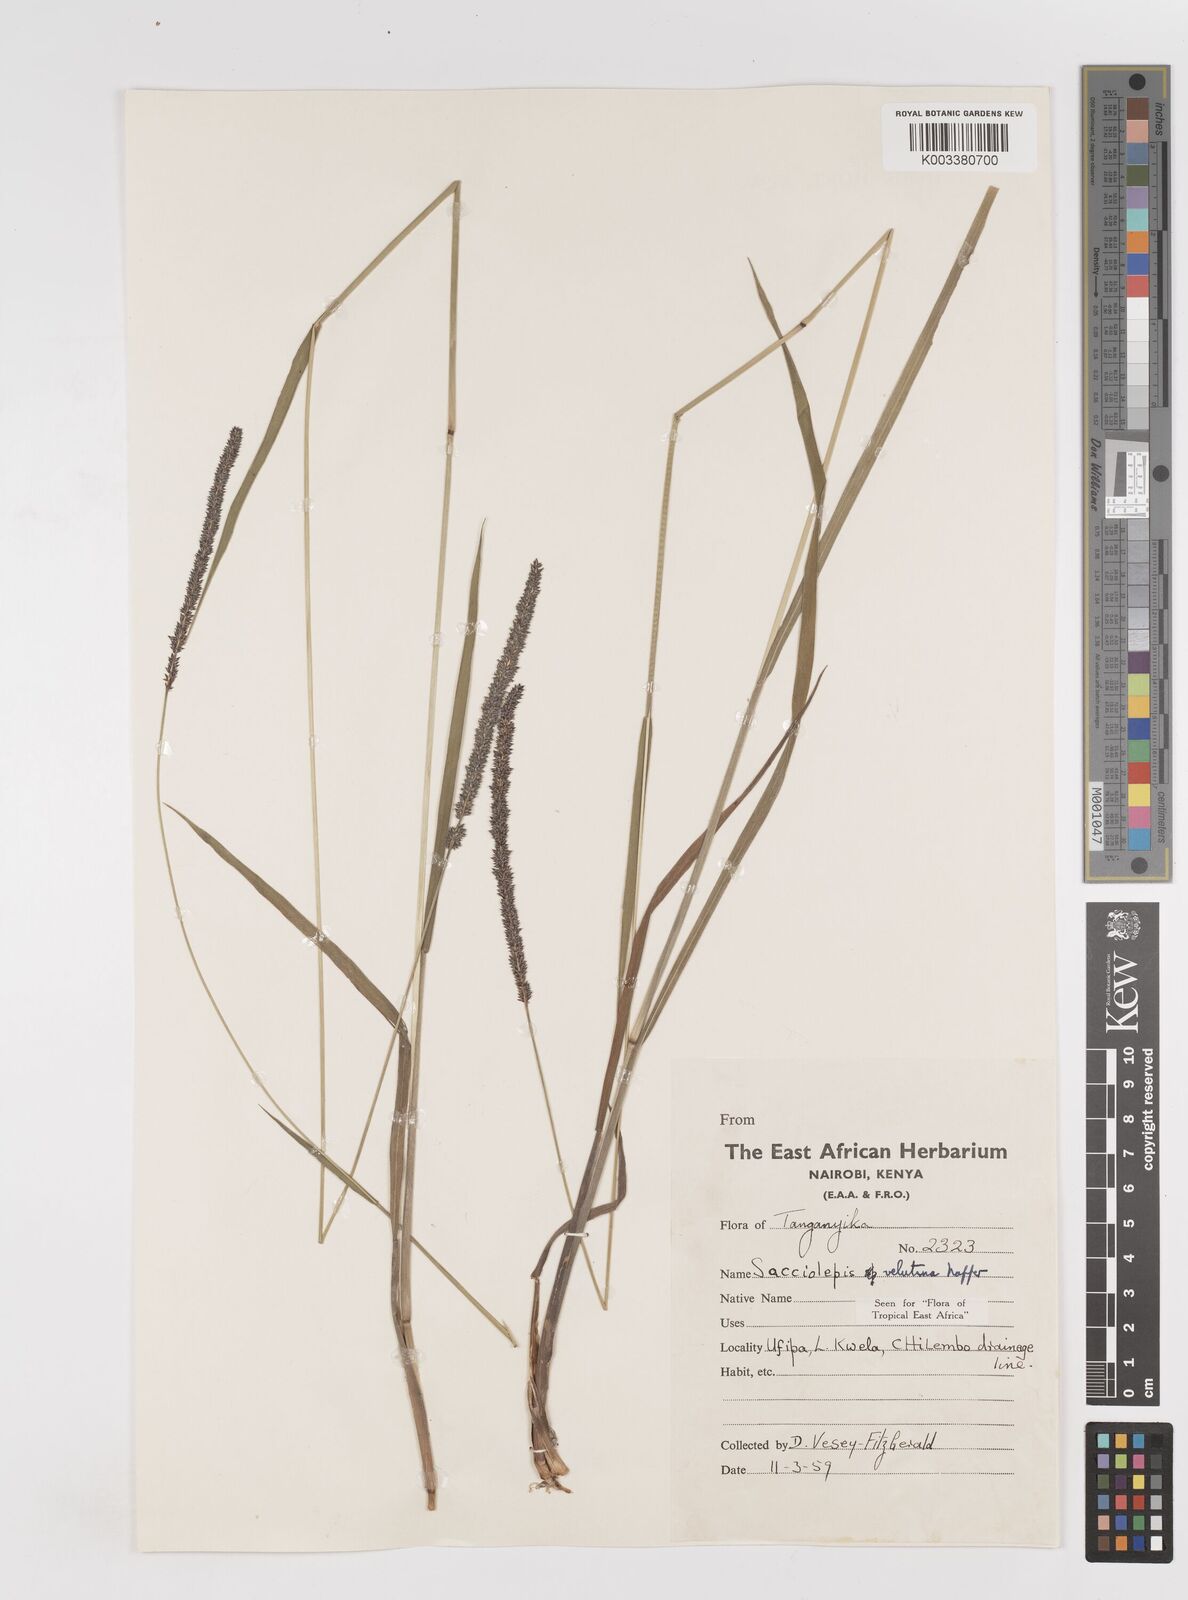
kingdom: Plantae
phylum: Tracheophyta
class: Liliopsida
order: Poales
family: Poaceae
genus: Sacciolepis
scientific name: Sacciolepis typhura
